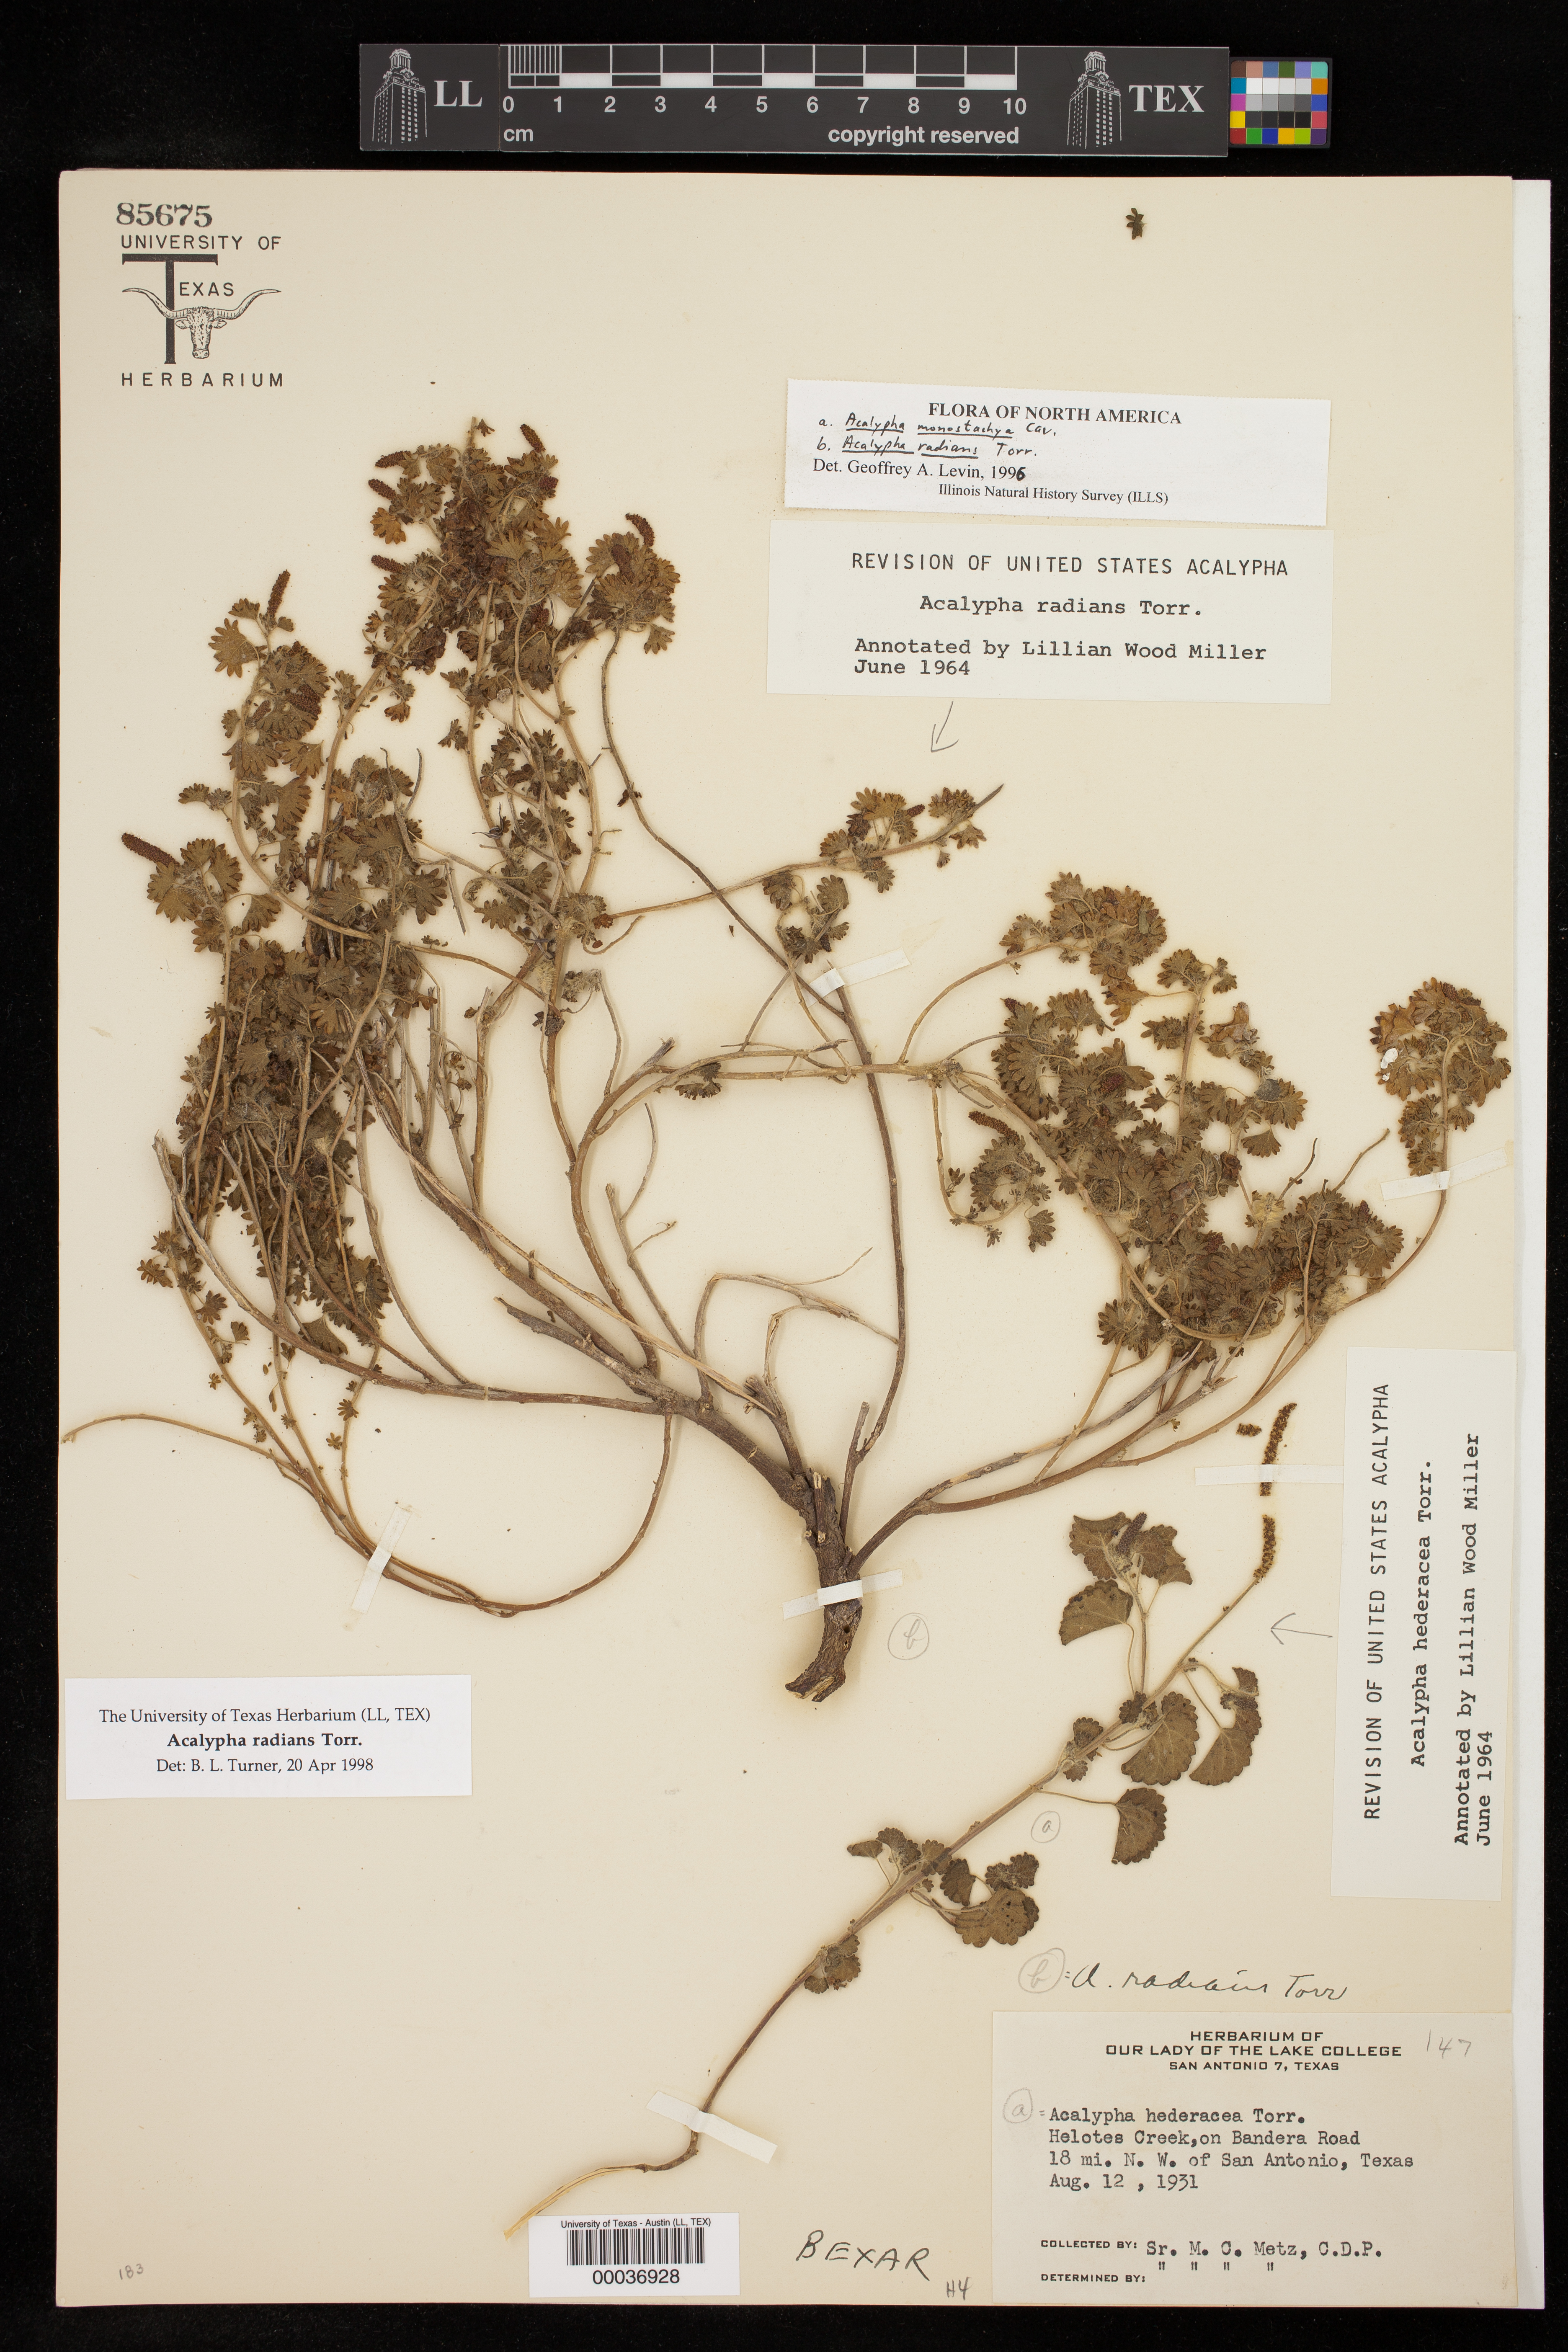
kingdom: Plantae
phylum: Tracheophyta
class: Magnoliopsida
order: Malpighiales
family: Euphorbiaceae
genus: Acalypha
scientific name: Acalypha radians
